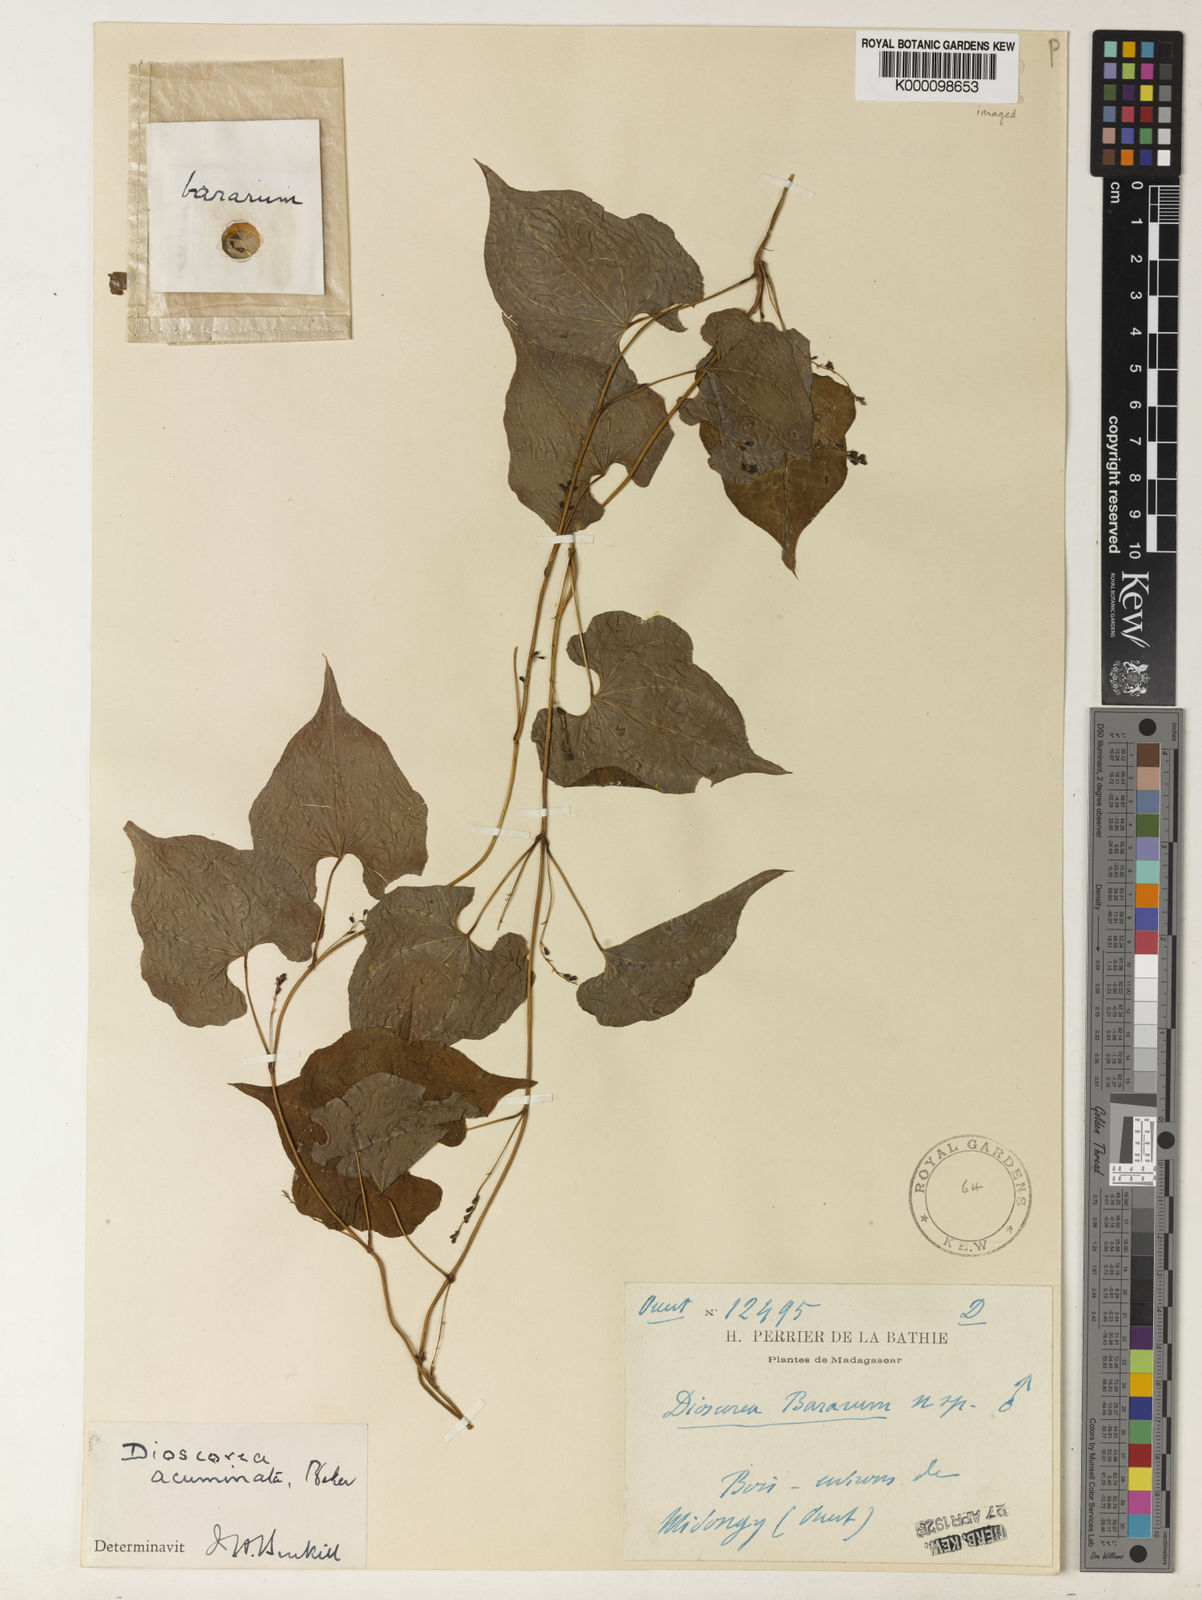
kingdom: Plantae
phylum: Tracheophyta
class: Liliopsida
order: Dioscoreales
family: Dioscoreaceae
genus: Dioscorea
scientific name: Dioscorea acuminata
